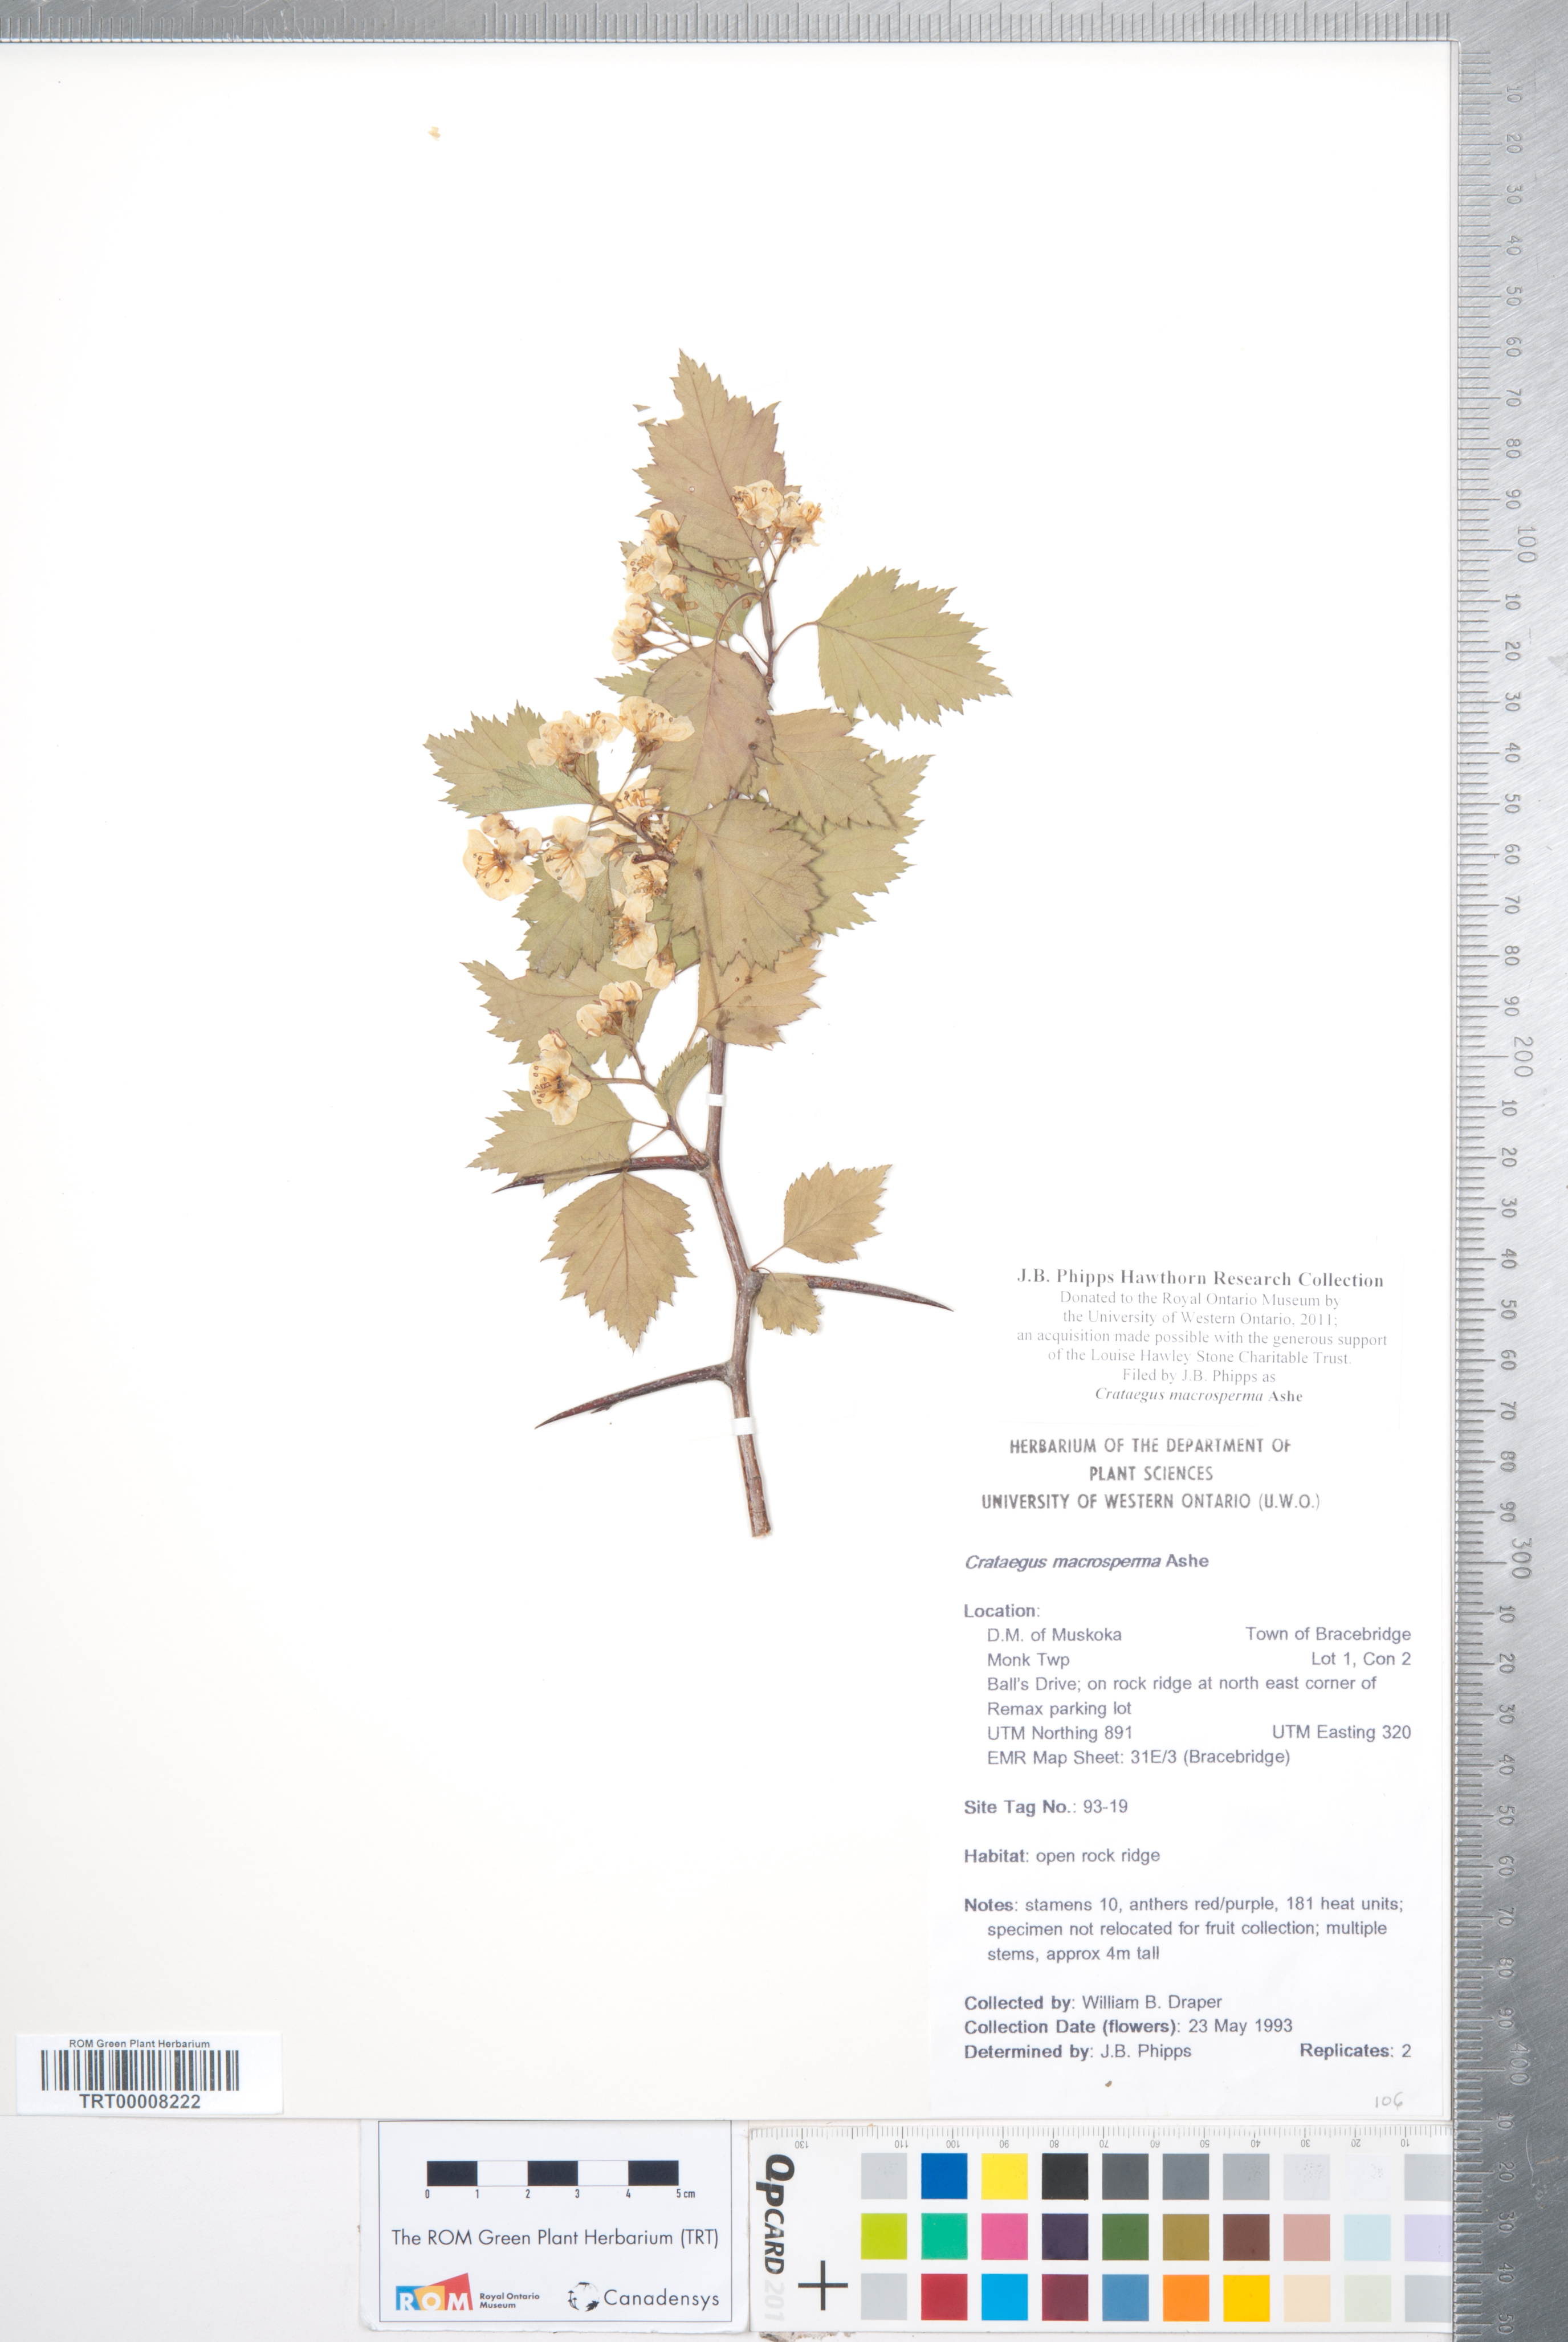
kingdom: Plantae
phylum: Tracheophyta
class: Magnoliopsida
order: Rosales
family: Rosaceae
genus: Crataegus
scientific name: Crataegus macrosperma
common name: Variable hawthorn
